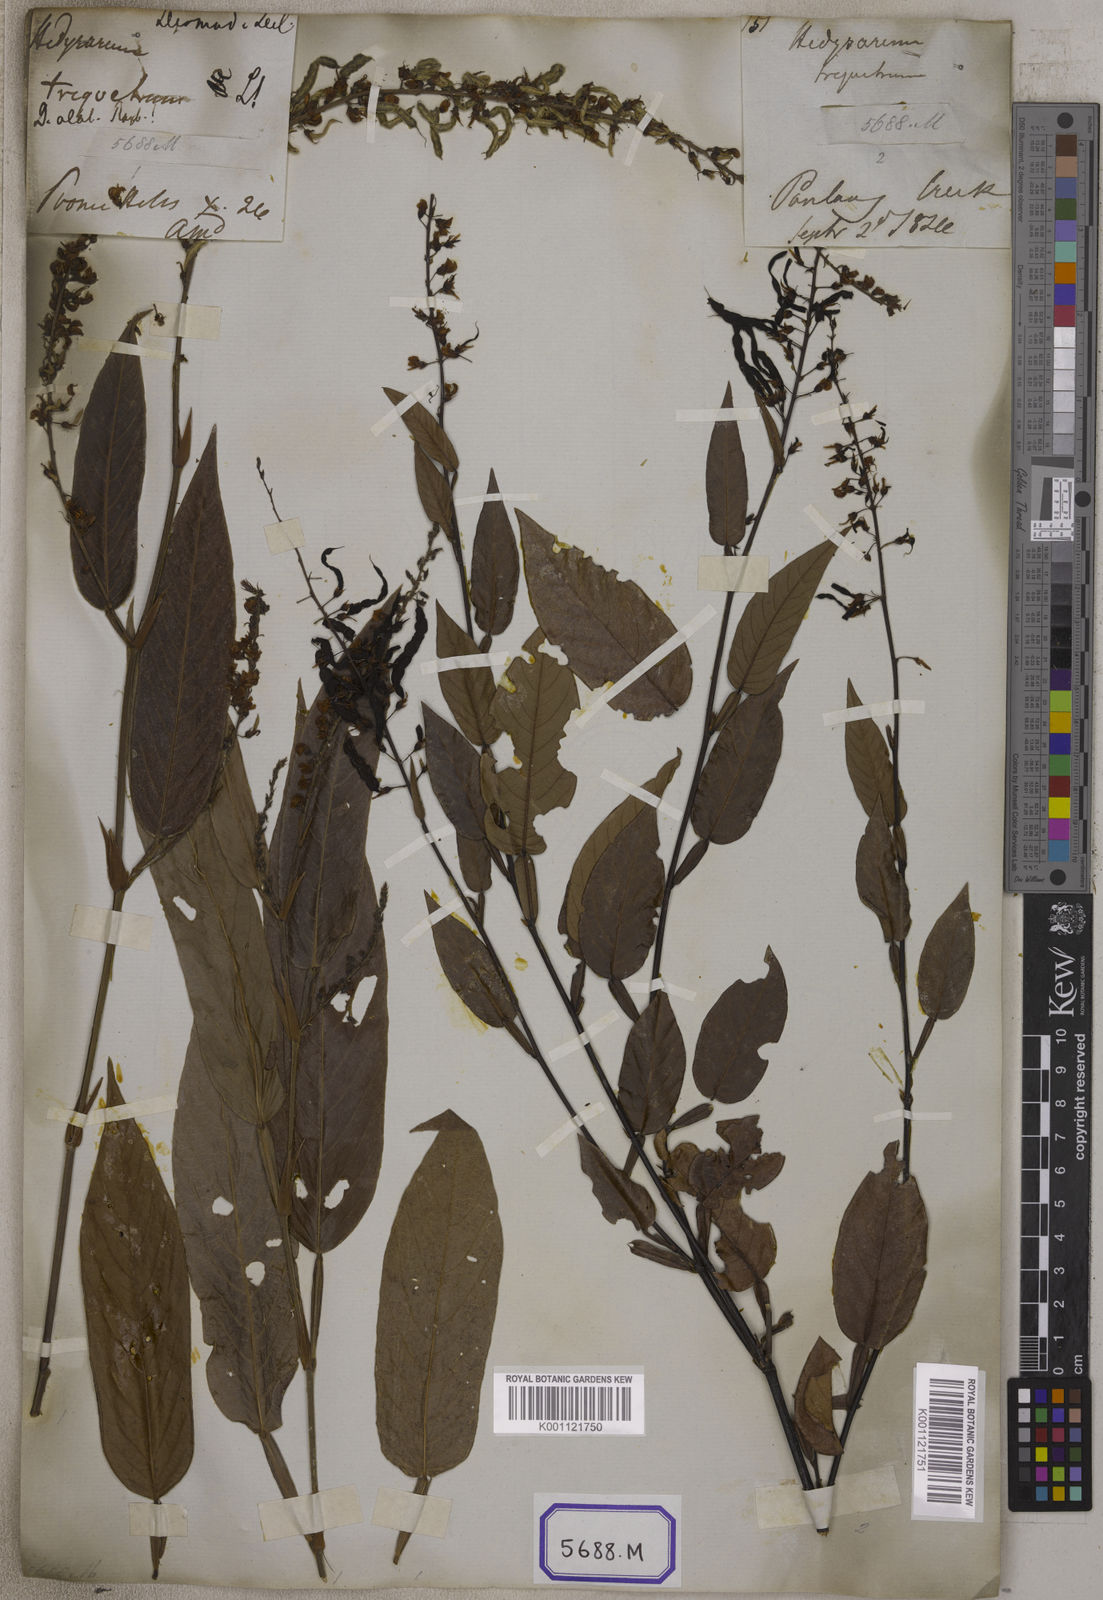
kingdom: Plantae
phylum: Tracheophyta
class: Magnoliopsida
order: Fabales
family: Fabaceae
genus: Tadehagi
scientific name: Tadehagi triquetrum
